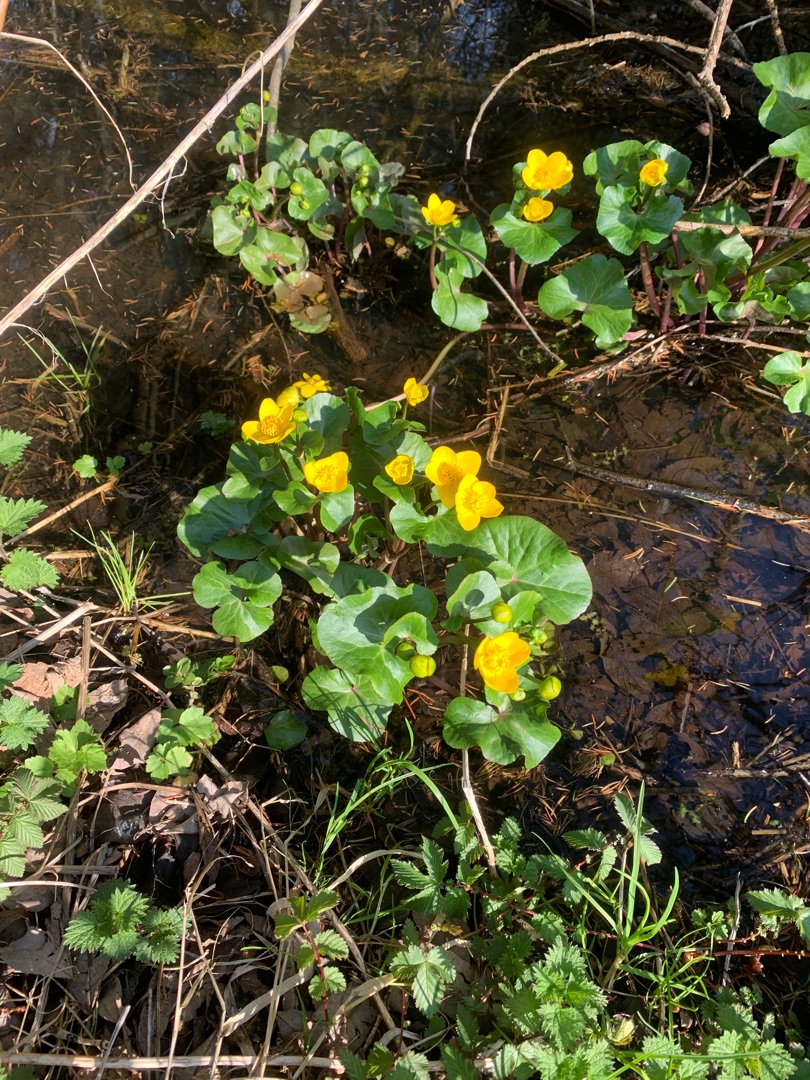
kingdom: Plantae
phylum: Tracheophyta
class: Magnoliopsida
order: Ranunculales
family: Ranunculaceae
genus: Caltha
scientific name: Caltha palustris
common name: Eng-kabbeleje
